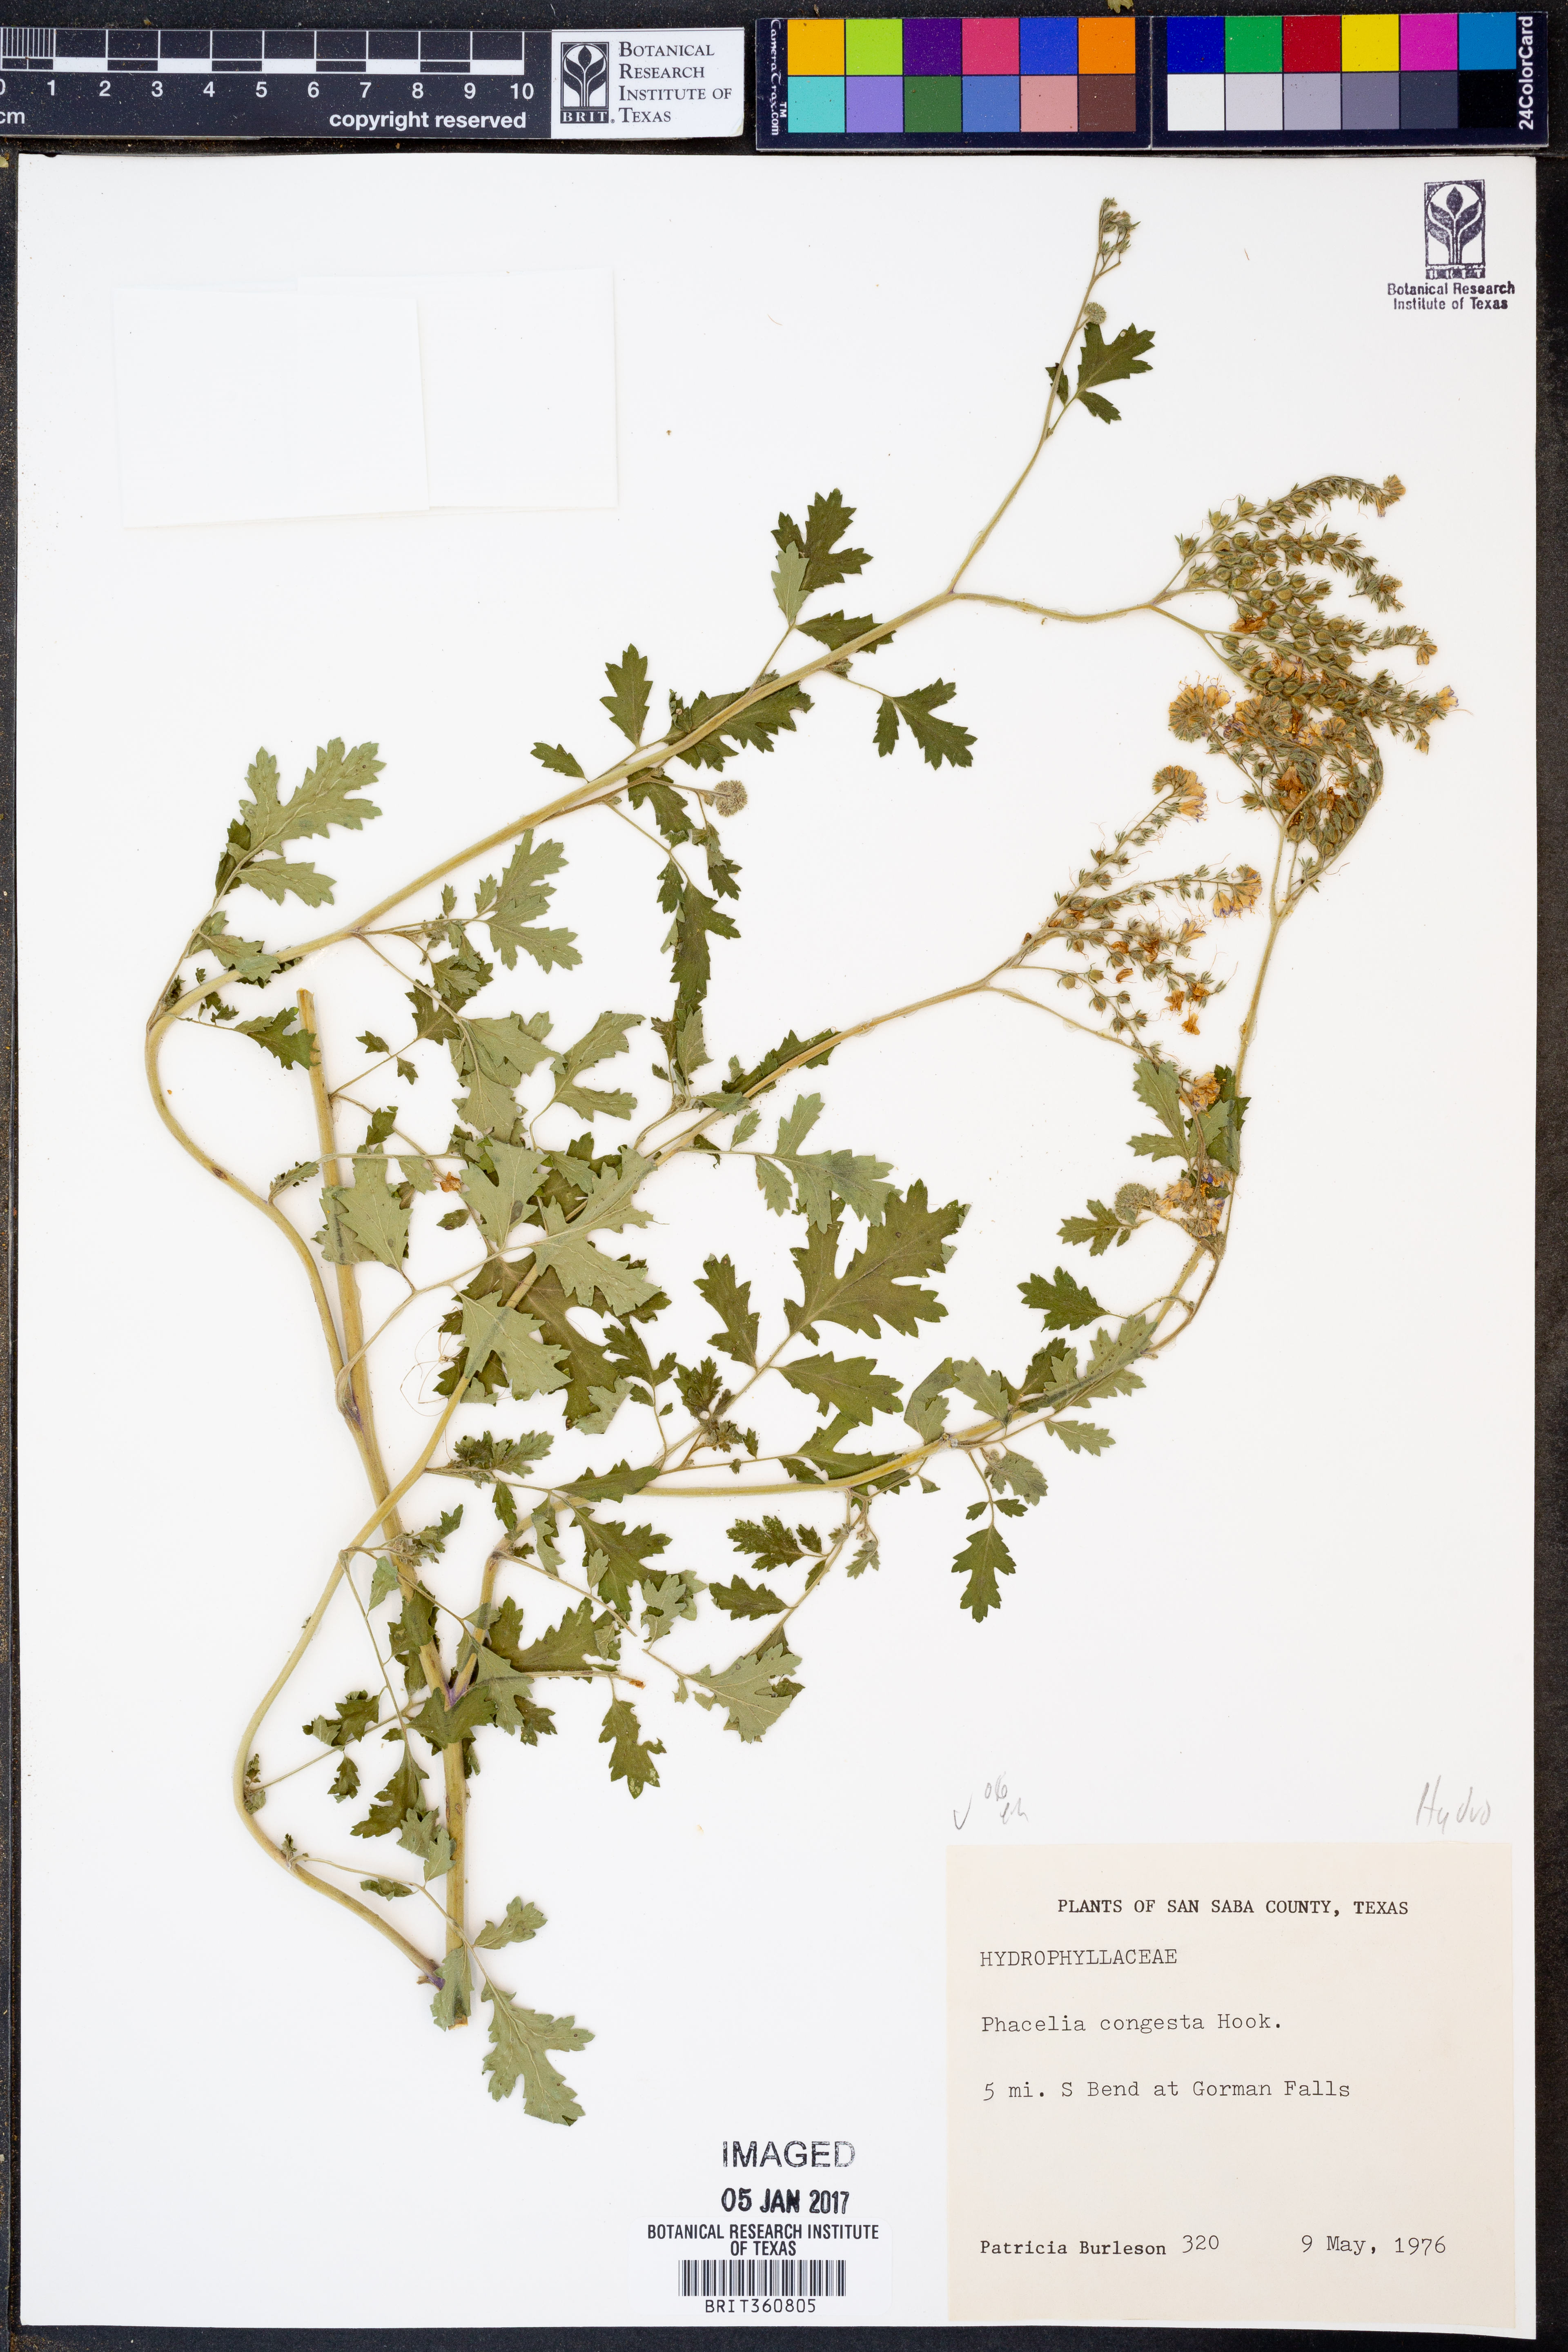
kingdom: Plantae
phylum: Tracheophyta
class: Magnoliopsida
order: Boraginales
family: Hydrophyllaceae
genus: Phacelia
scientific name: Phacelia congesta
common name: Blue curls
